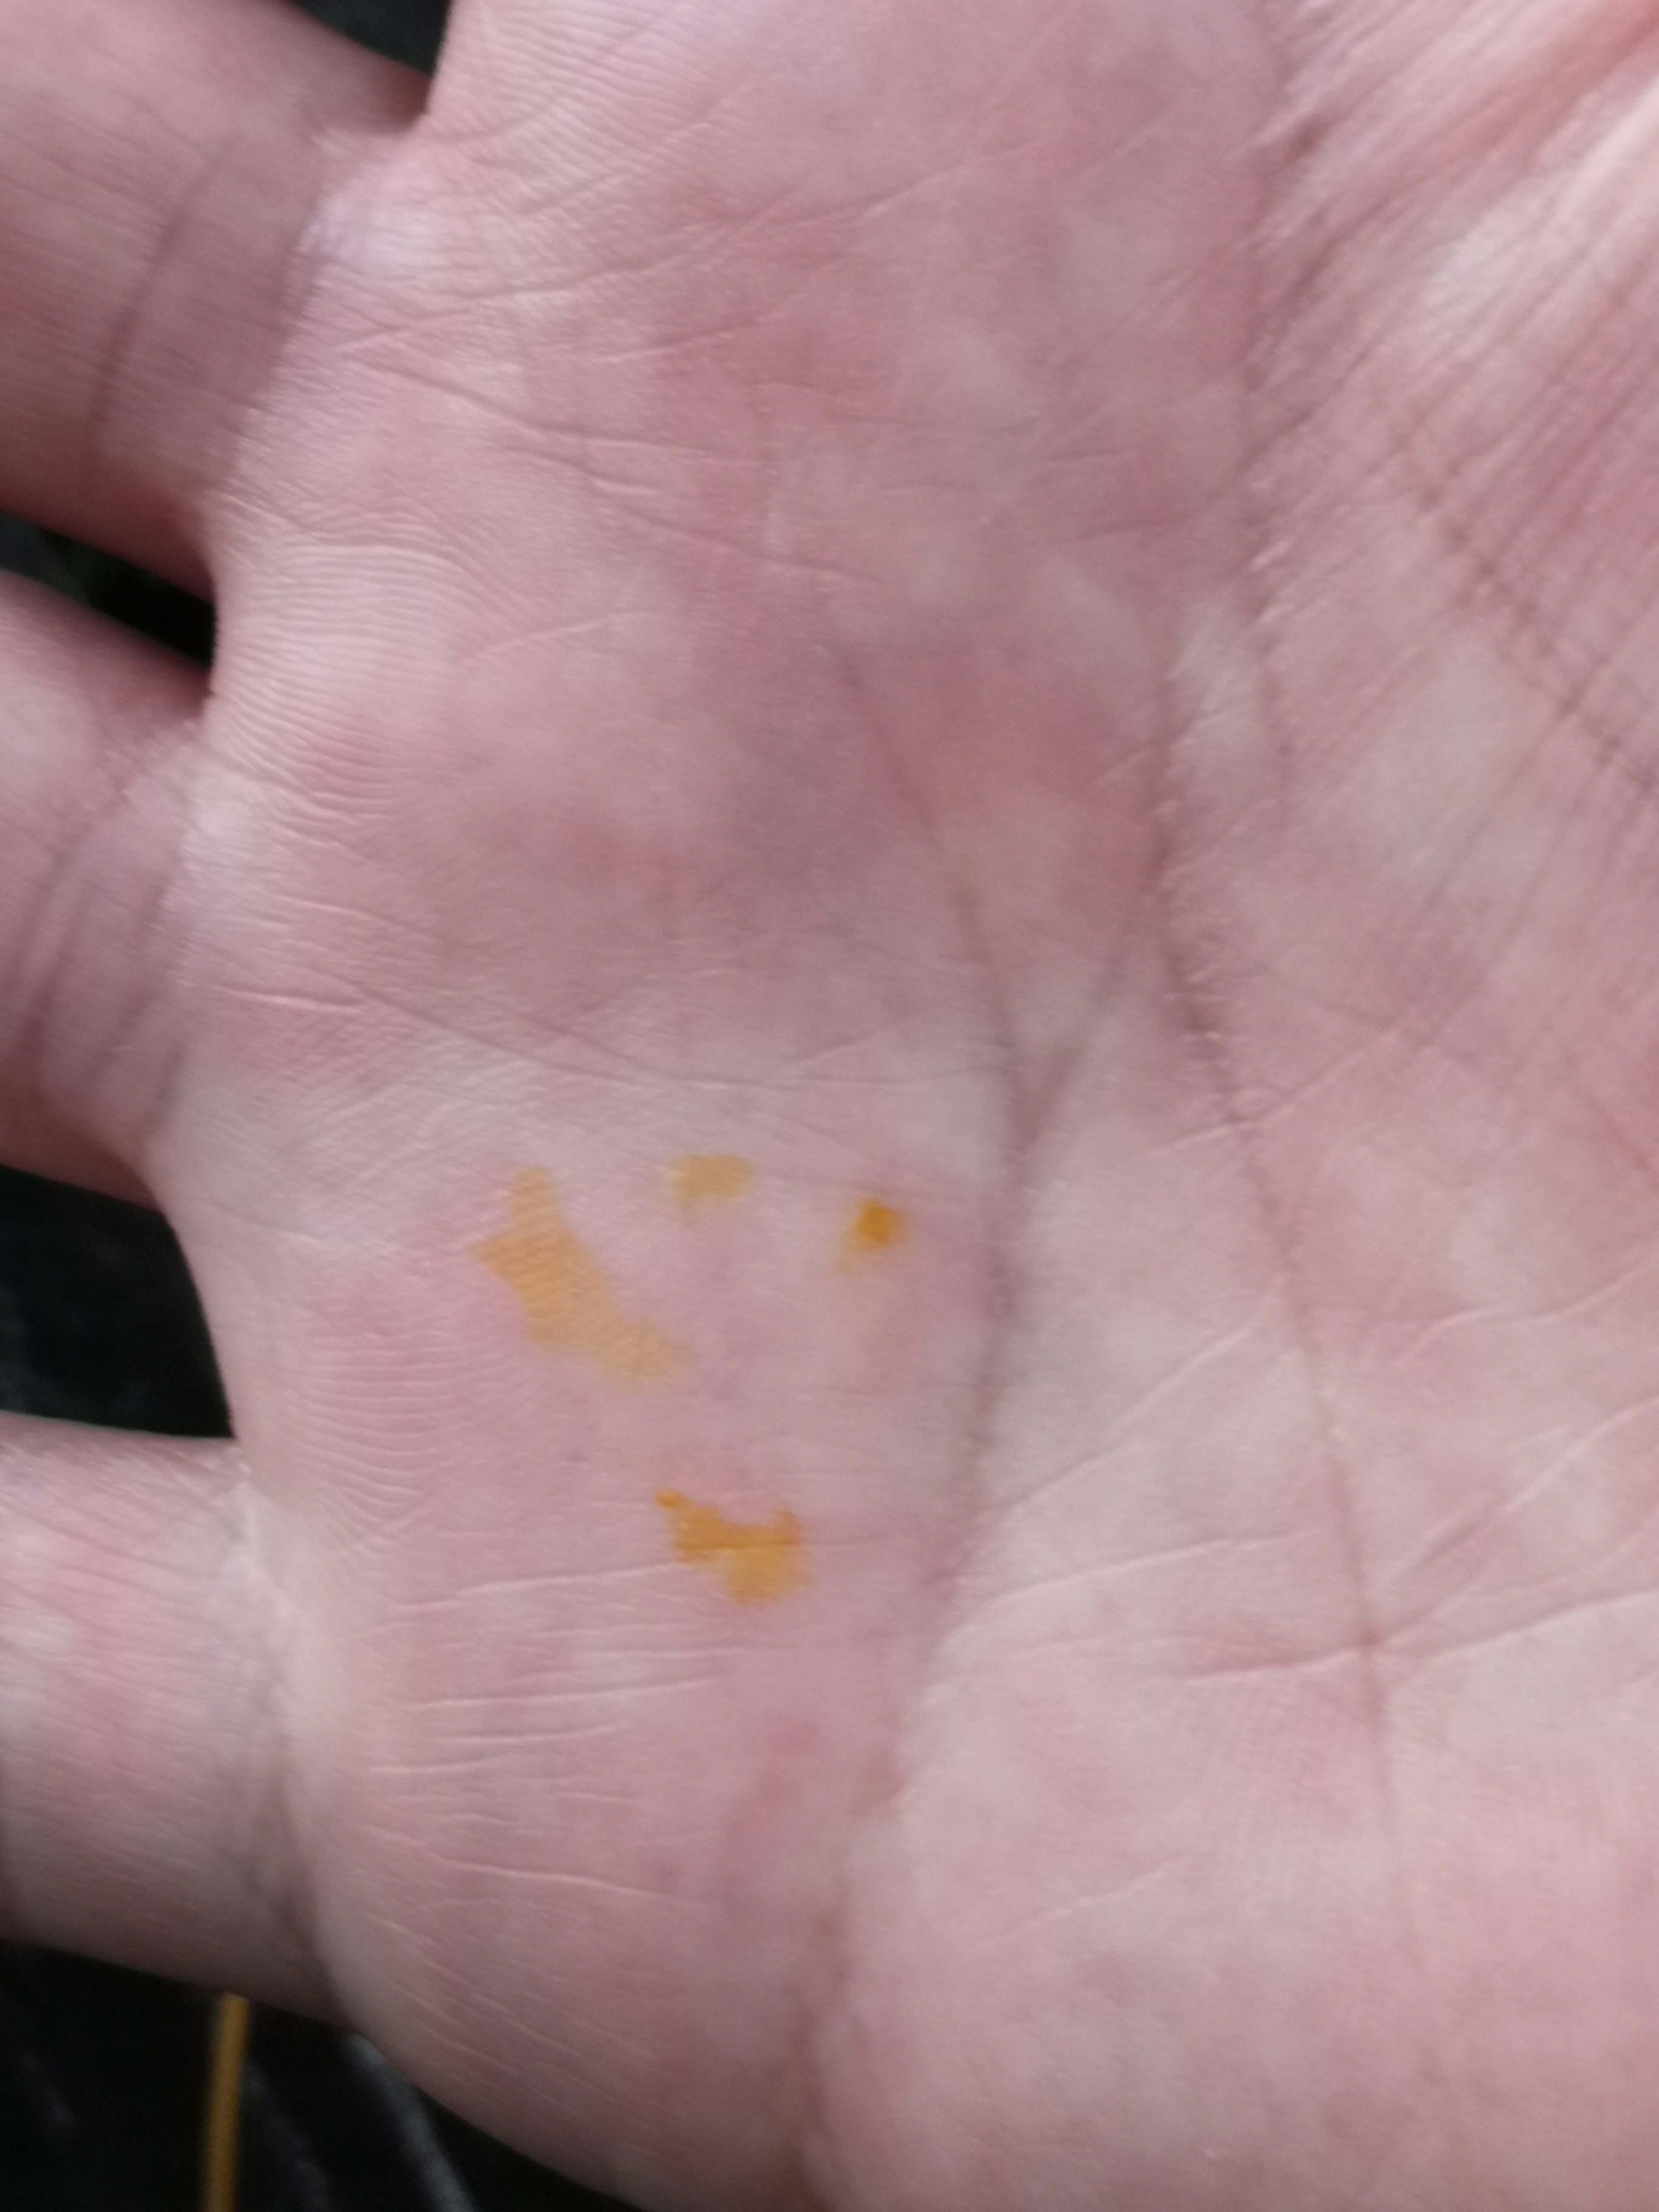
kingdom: Fungi
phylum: Basidiomycota
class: Agaricomycetes
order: Agaricales
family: Mycenaceae
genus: Mycena
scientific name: Mycena crocata
